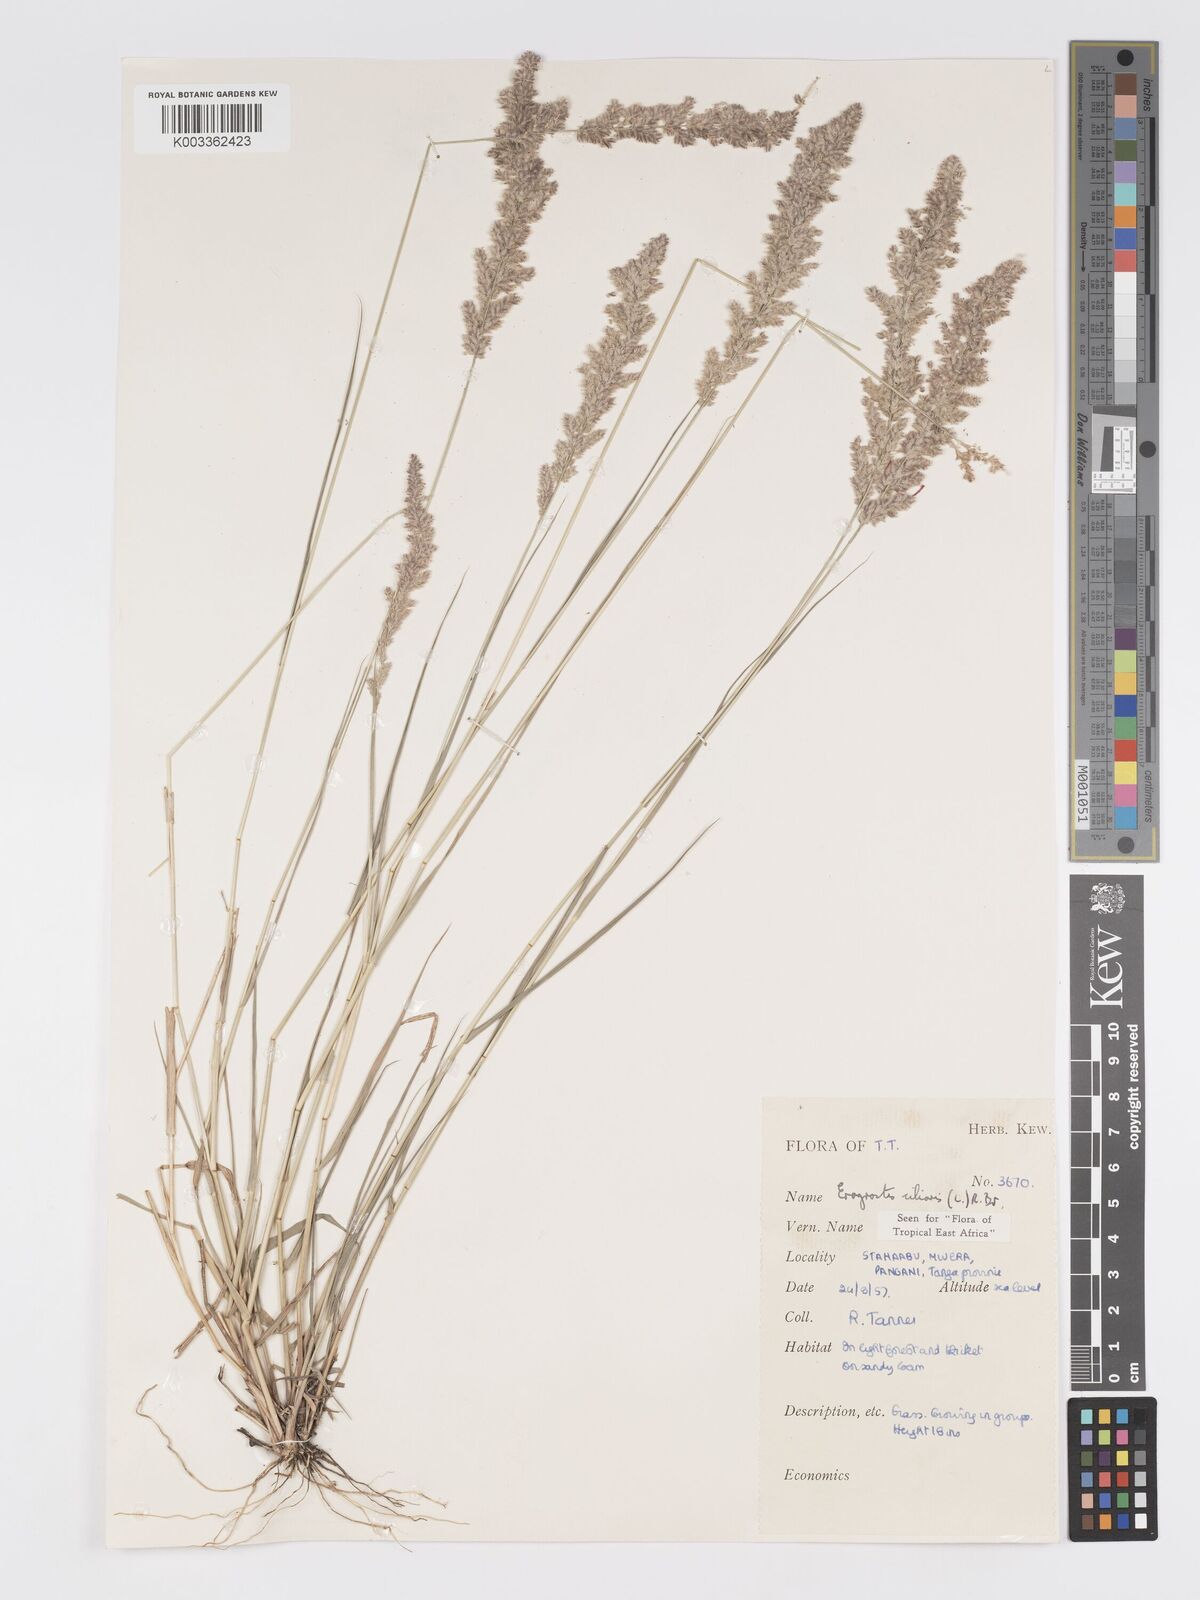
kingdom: Plantae
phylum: Tracheophyta
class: Liliopsida
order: Poales
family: Poaceae
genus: Eragrostis
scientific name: Eragrostis ciliaris
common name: Gophertail lovegrass
